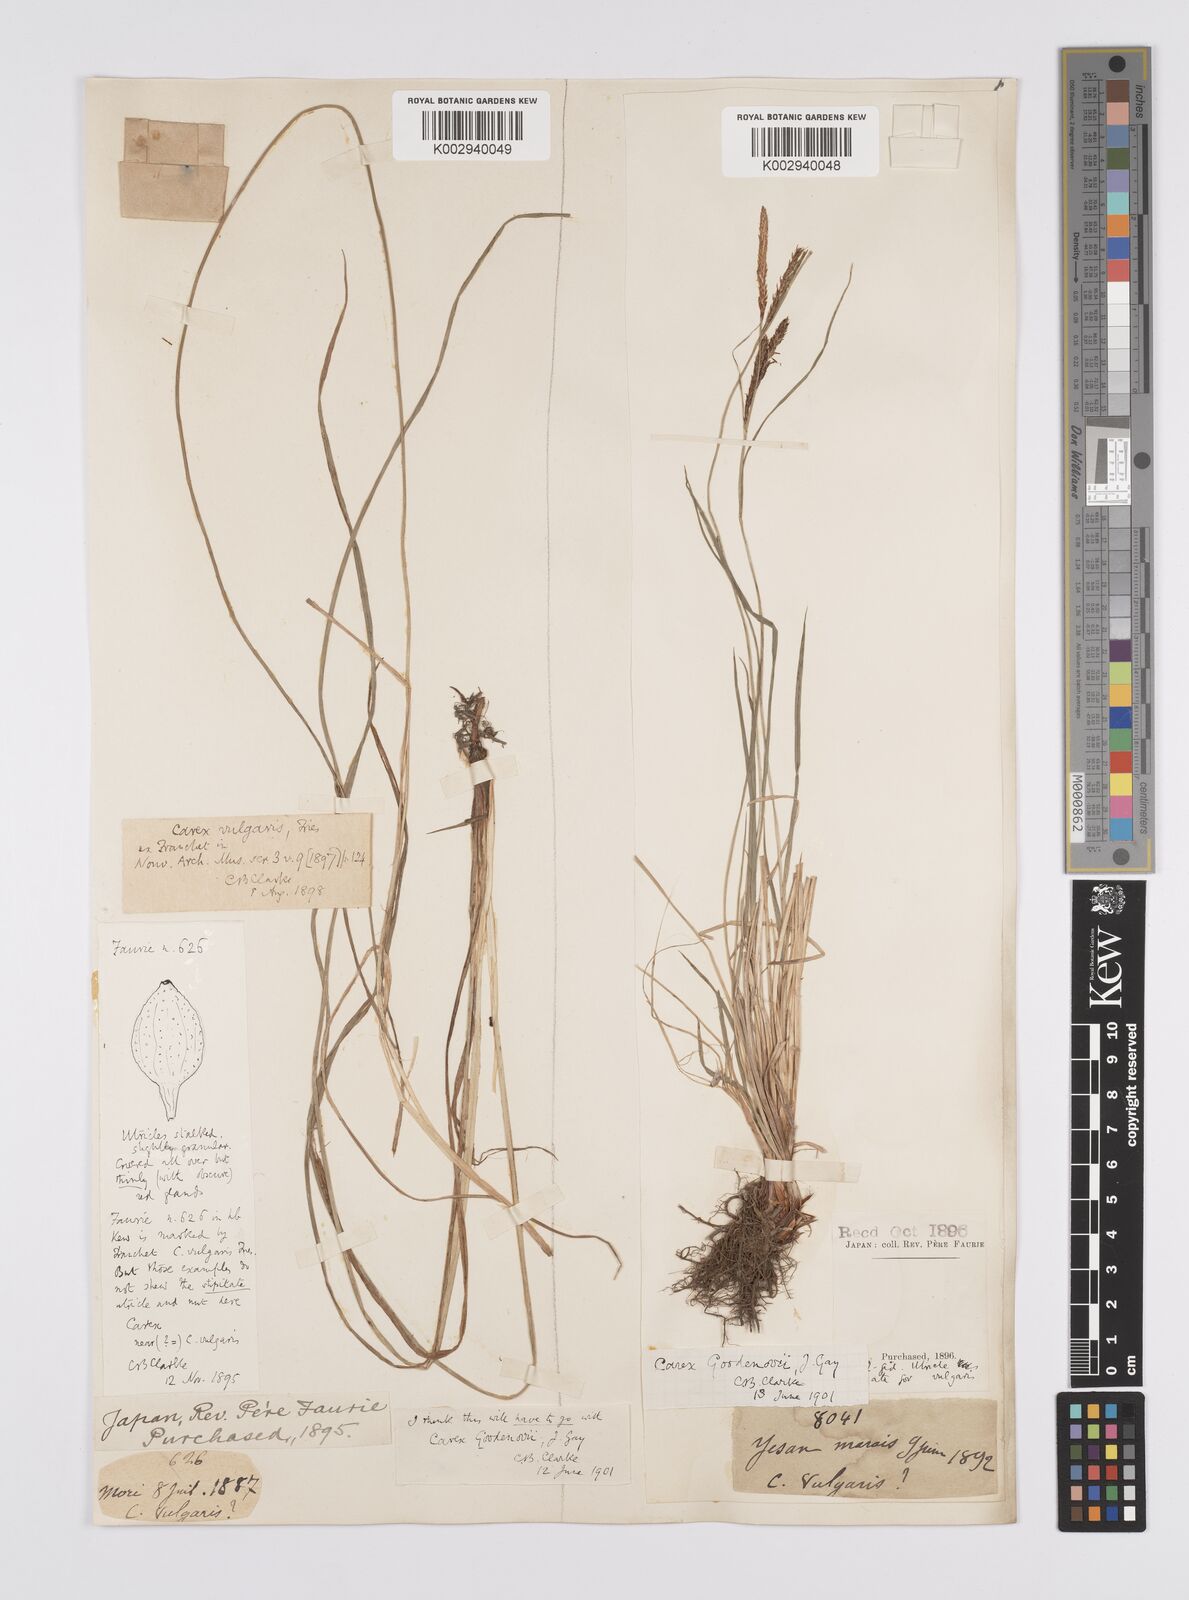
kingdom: Plantae
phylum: Tracheophyta
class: Liliopsida
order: Poales
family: Cyperaceae
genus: Carex
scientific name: Carex thunbergii
